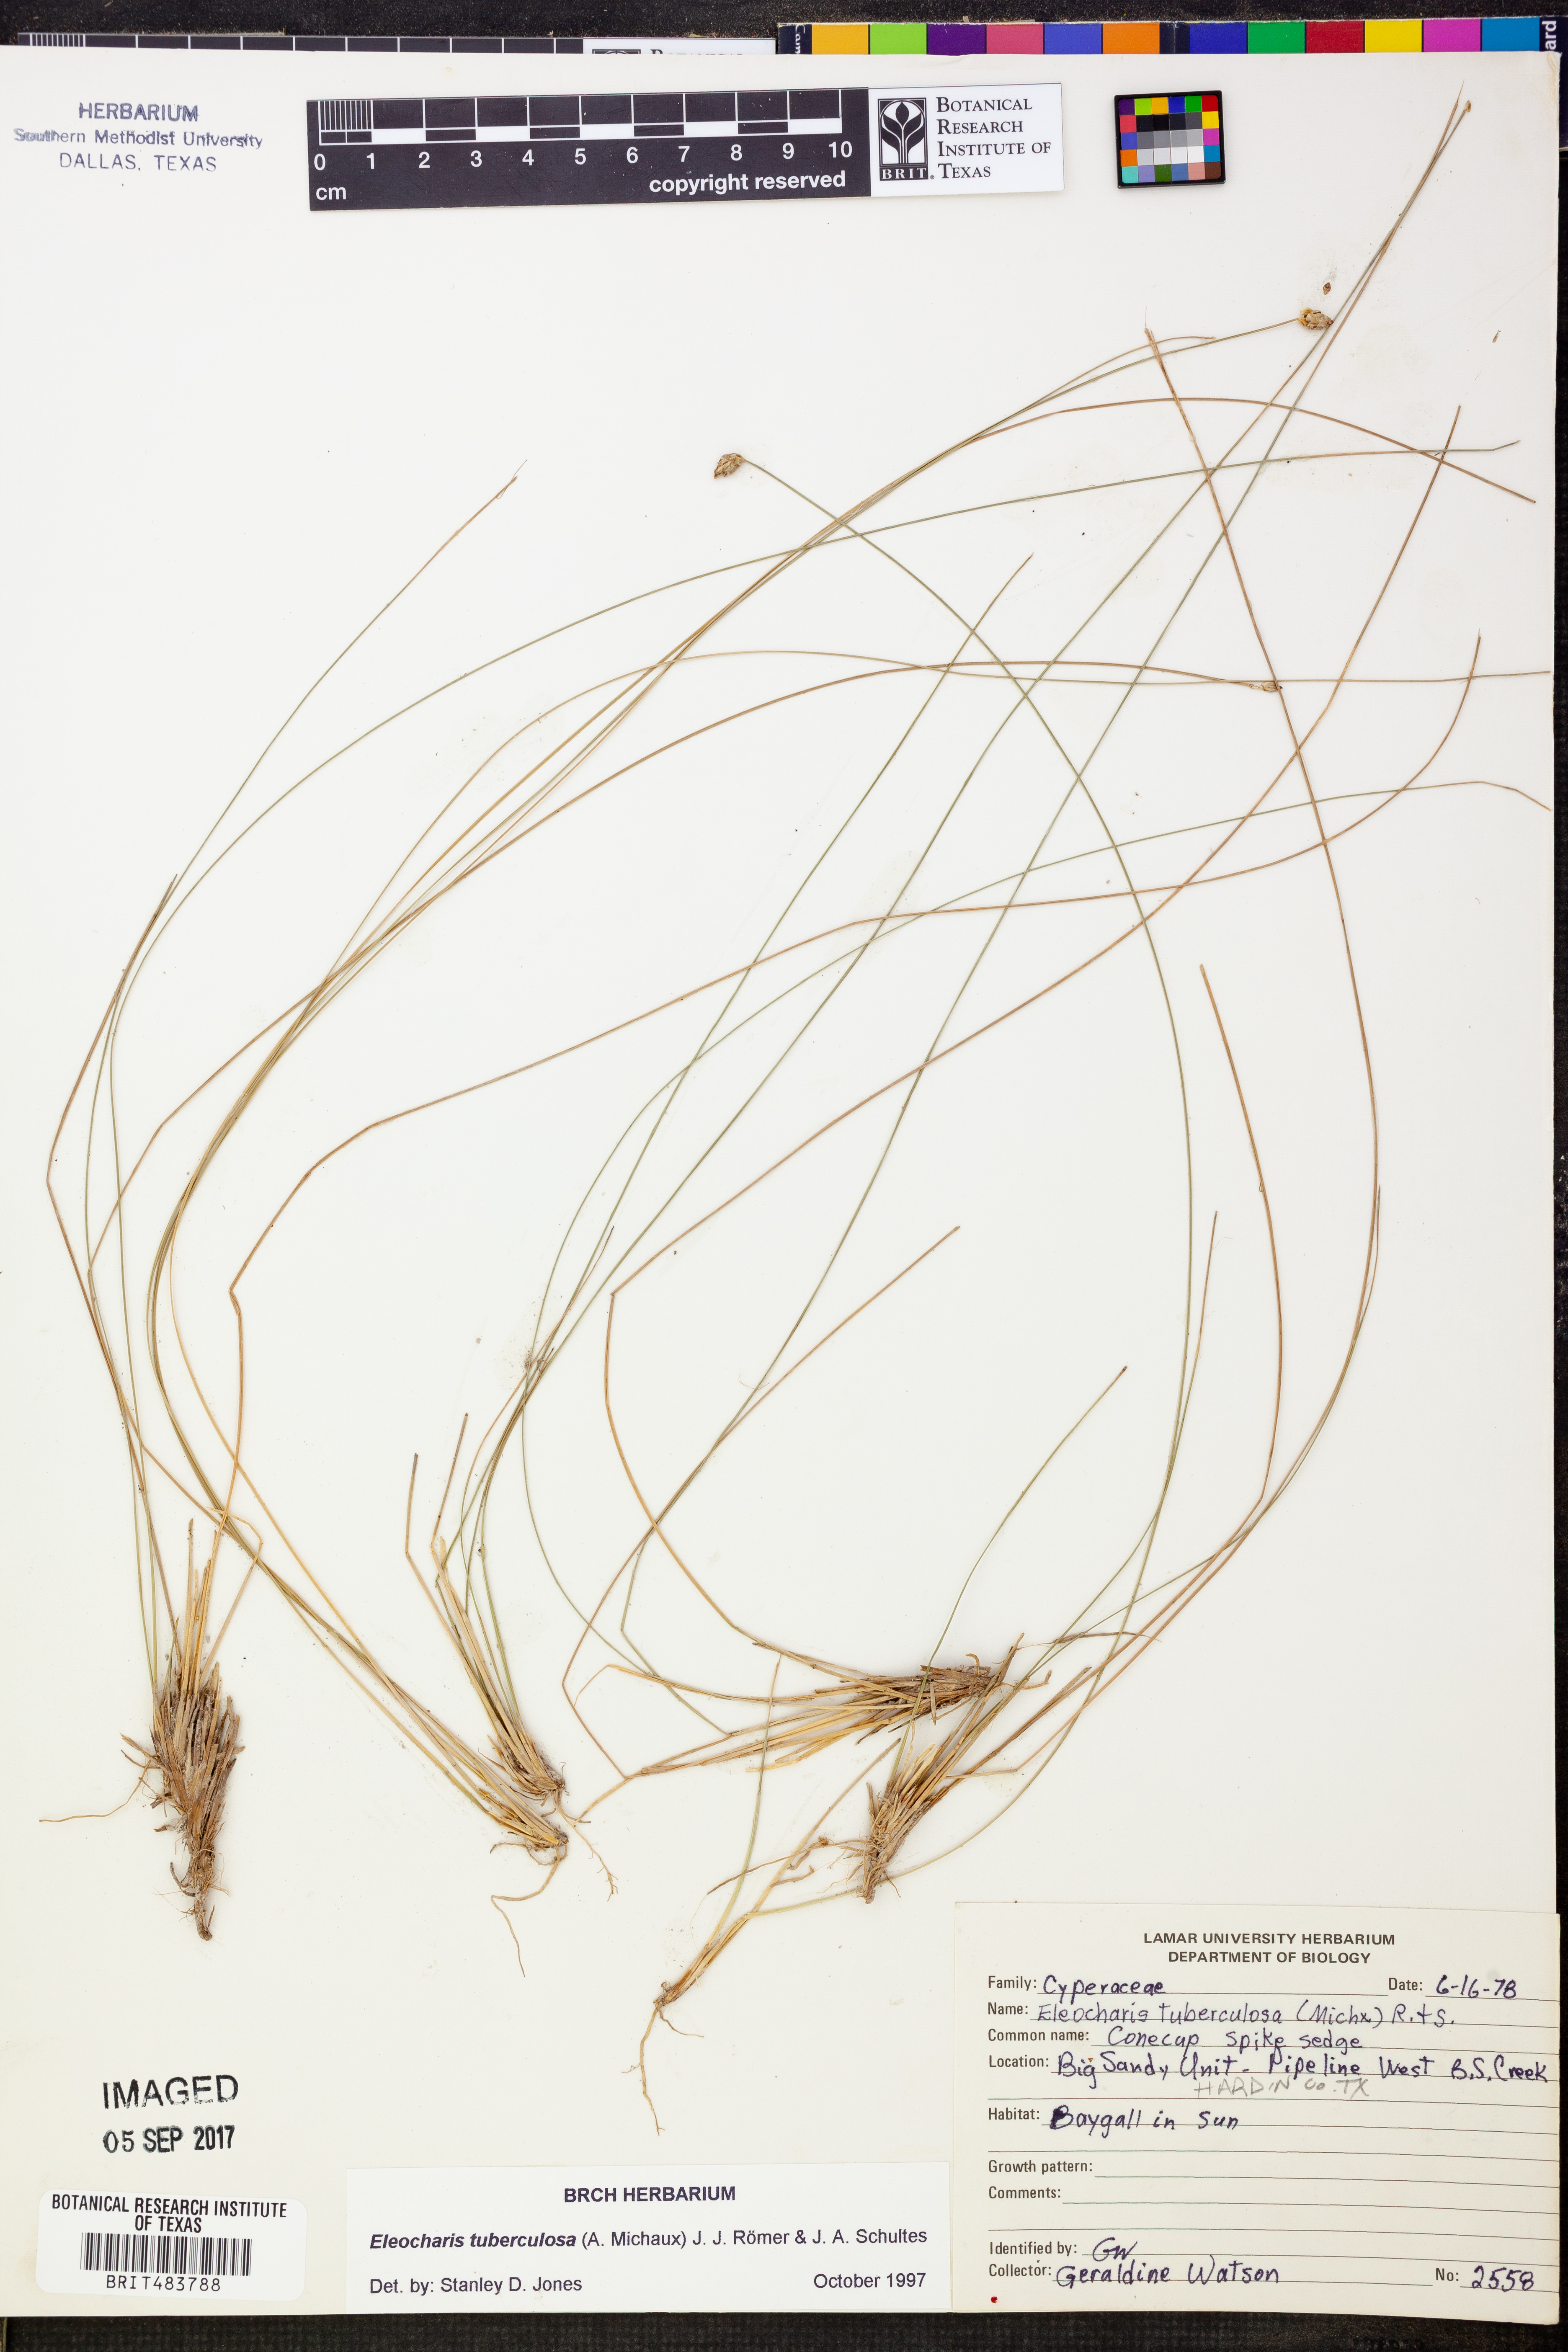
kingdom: Plantae
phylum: Tracheophyta
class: Liliopsida
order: Poales
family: Cyperaceae
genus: Eleocharis
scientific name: Eleocharis tuberculosa
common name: Cone-cup spikerush
